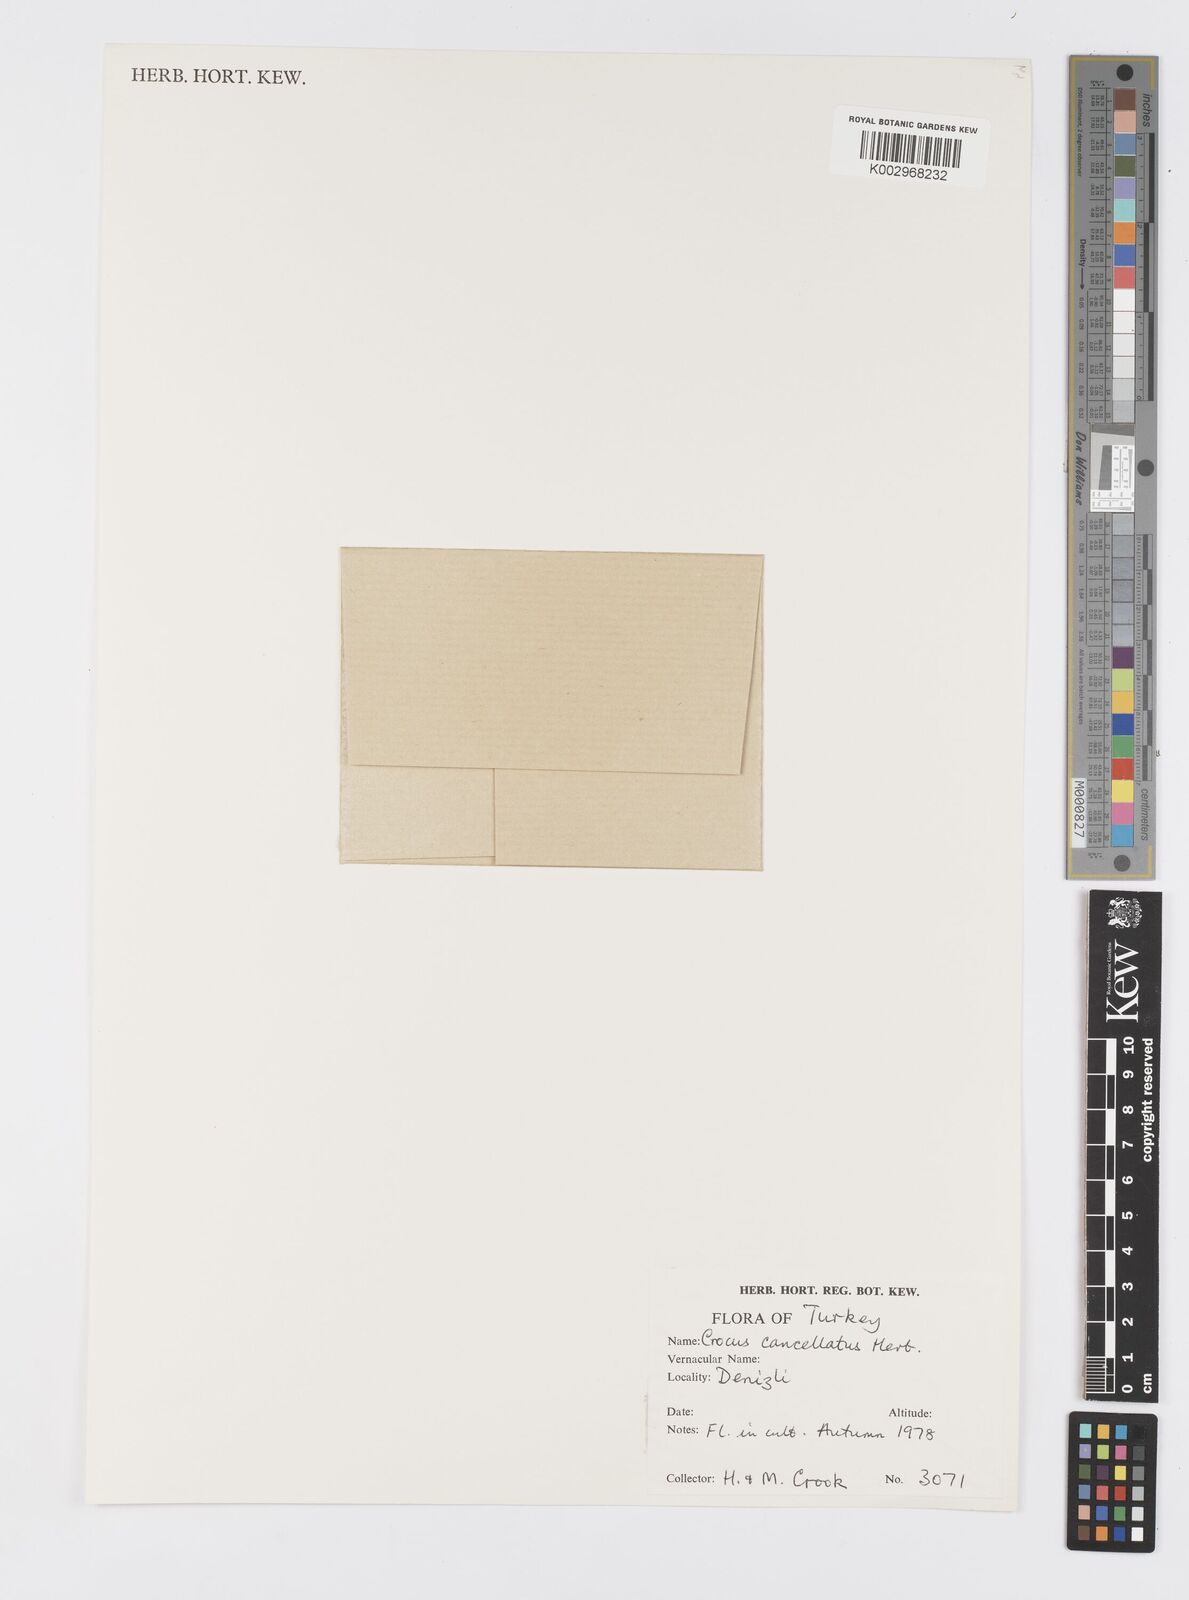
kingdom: Plantae
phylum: Tracheophyta
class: Liliopsida
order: Asparagales
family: Iridaceae
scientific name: Iridaceae
